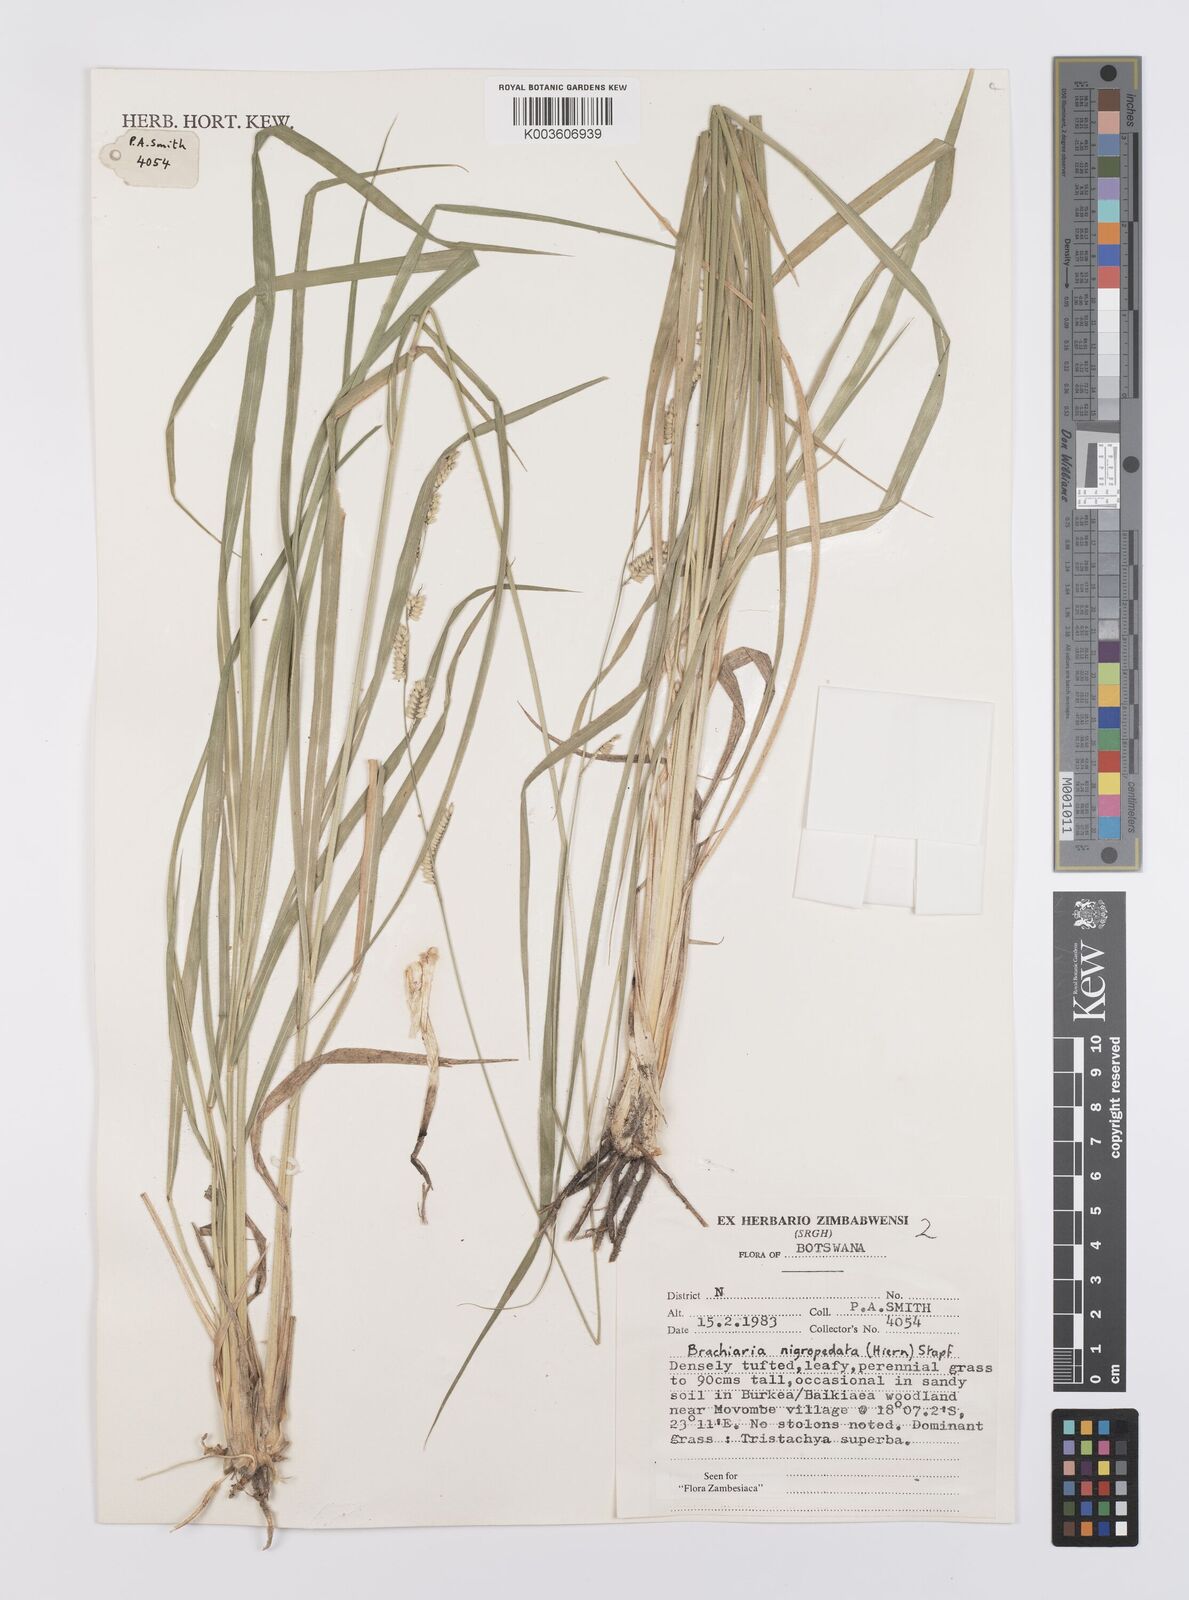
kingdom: Plantae
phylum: Tracheophyta
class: Liliopsida
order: Poales
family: Poaceae
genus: Urochloa
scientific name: Urochloa nigropedata
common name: Spotted signal grass
